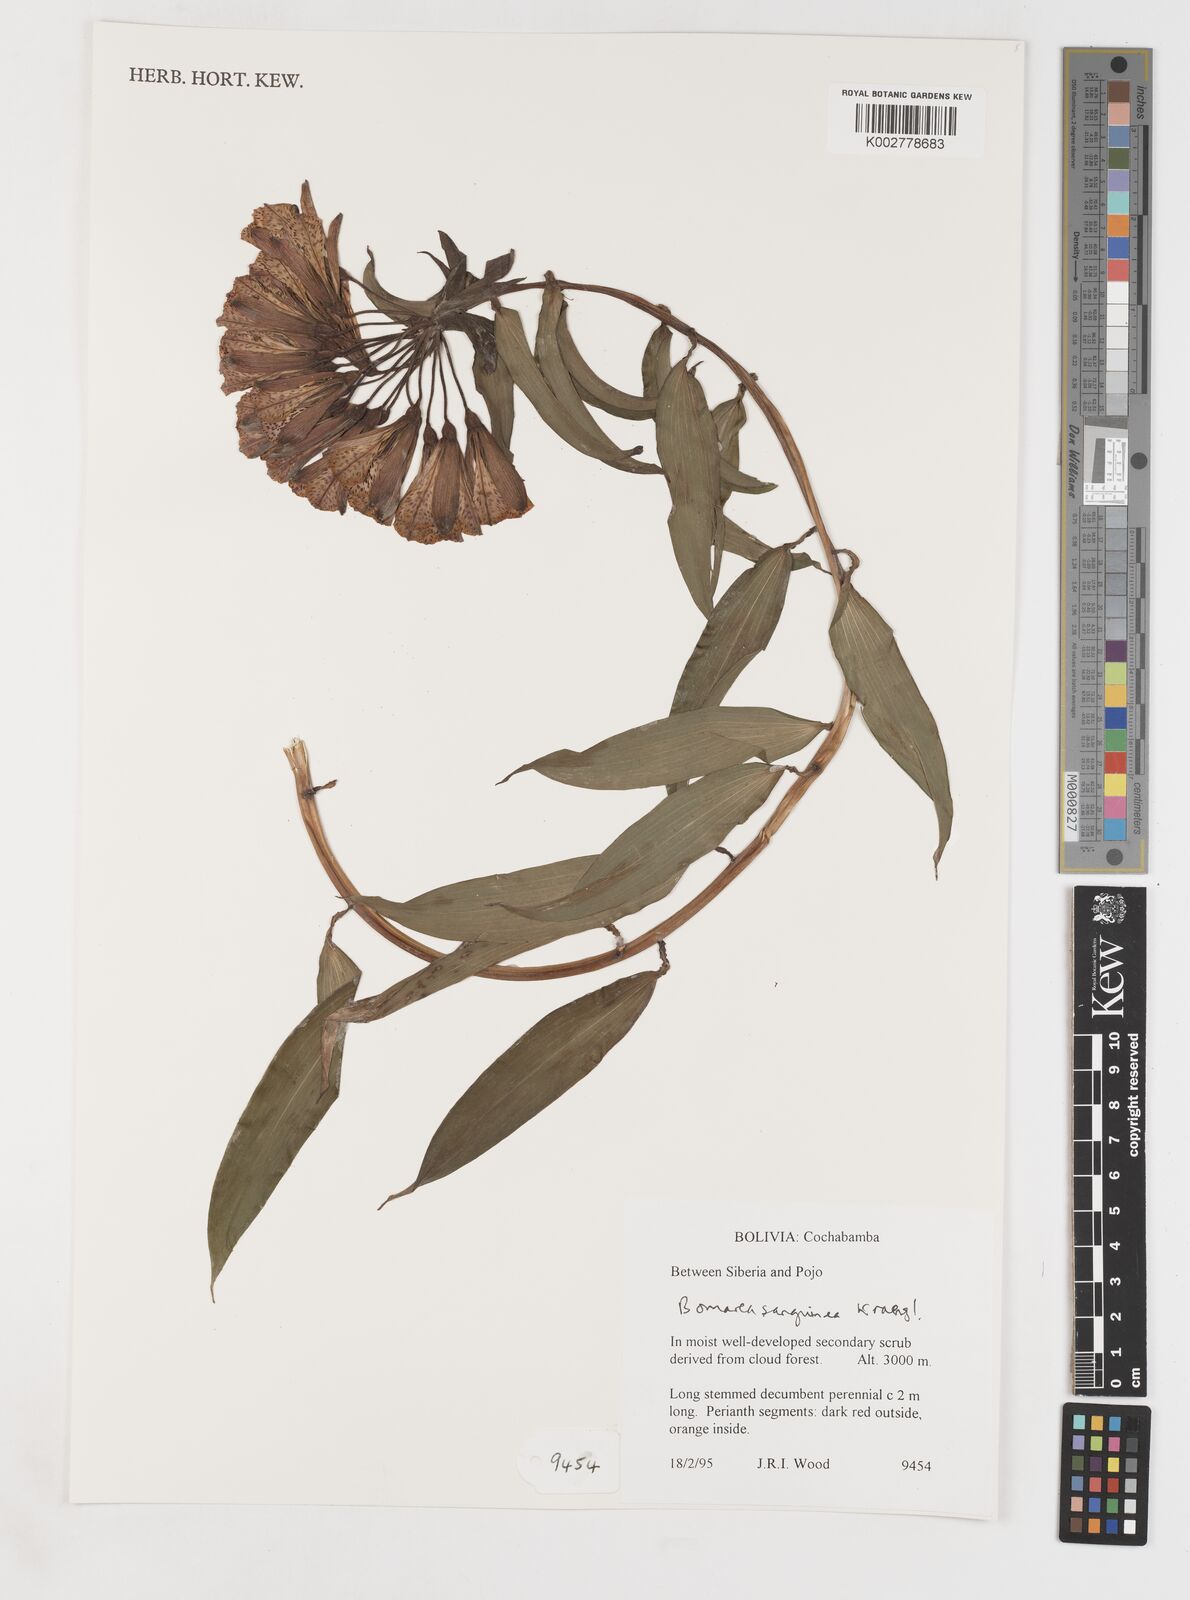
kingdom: Plantae
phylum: Tracheophyta
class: Liliopsida
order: Liliales
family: Alstroemeriaceae
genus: Bomarea
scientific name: Bomarea formosissima
